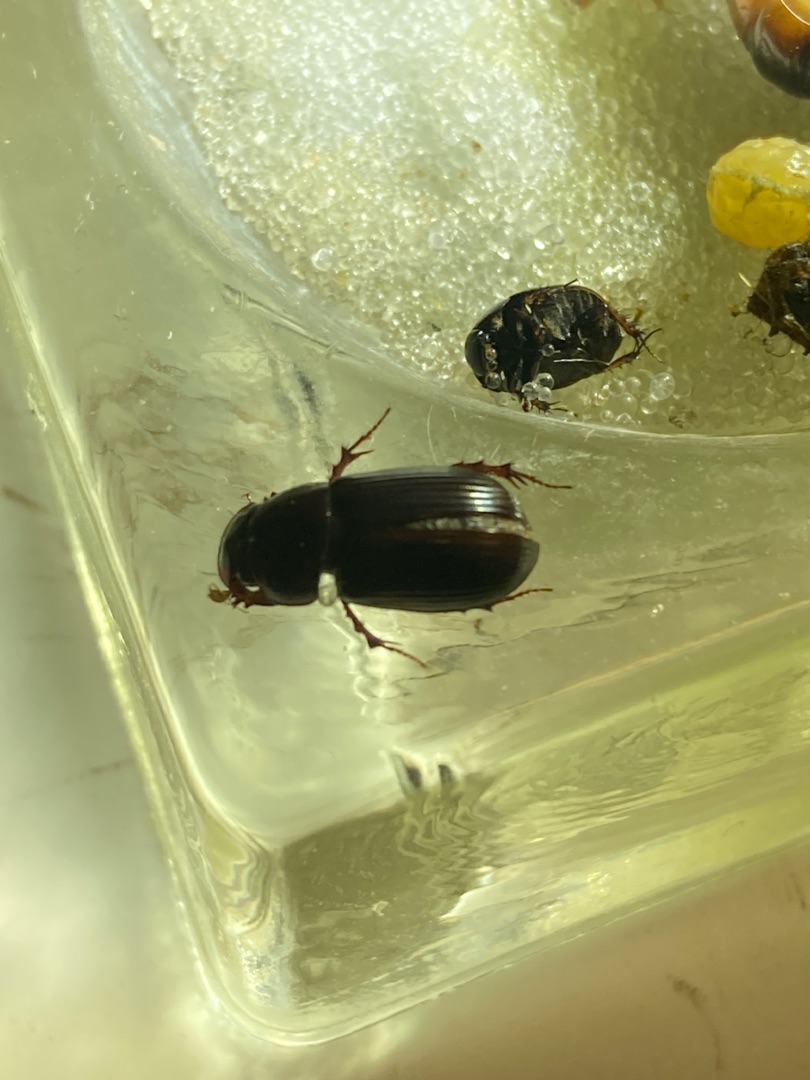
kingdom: Animalia
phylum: Arthropoda
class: Insecta
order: Coleoptera
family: Scarabaeidae
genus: Acrossus
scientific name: Acrossus rufipes
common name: Rødbenet møgbille
